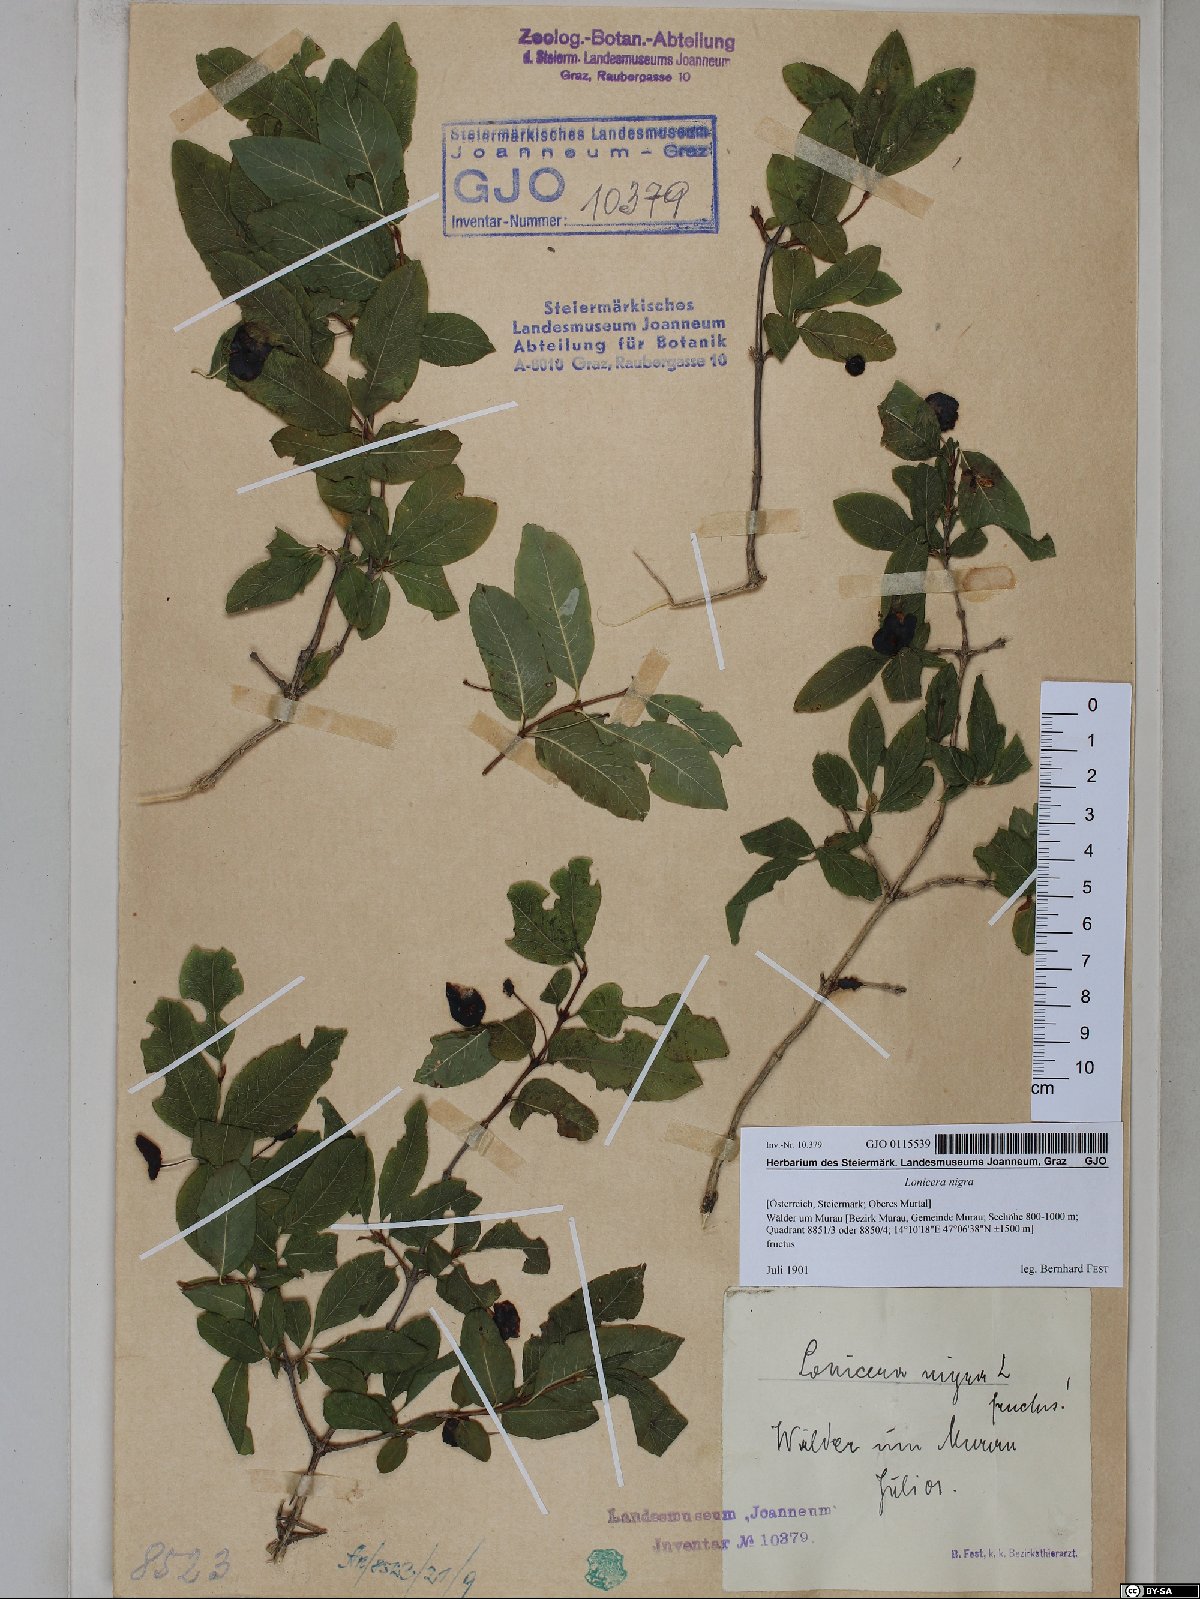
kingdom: Plantae
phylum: Tracheophyta
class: Magnoliopsida
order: Dipsacales
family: Caprifoliaceae
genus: Lonicera
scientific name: Lonicera nigra
